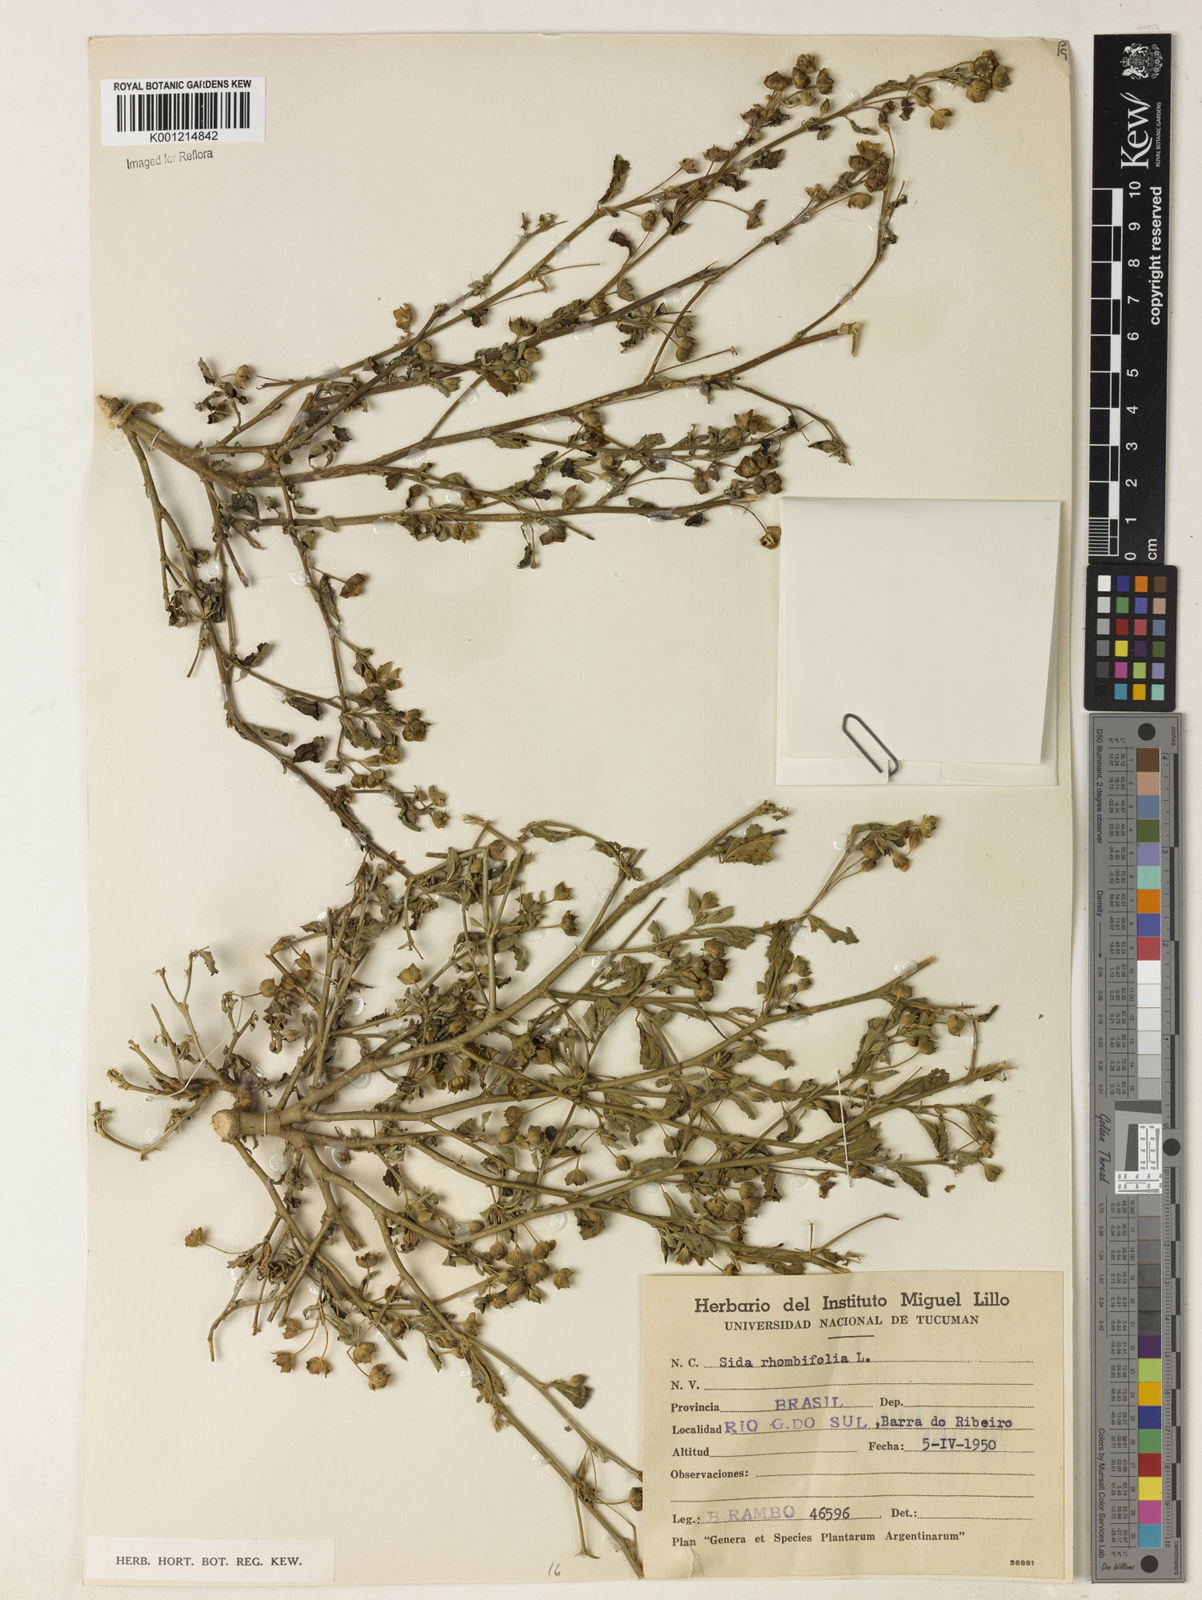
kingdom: Plantae
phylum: Tracheophyta
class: Magnoliopsida
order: Malvales
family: Malvaceae
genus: Sida
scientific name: Sida rhombifolia
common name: Queensland-hemp
